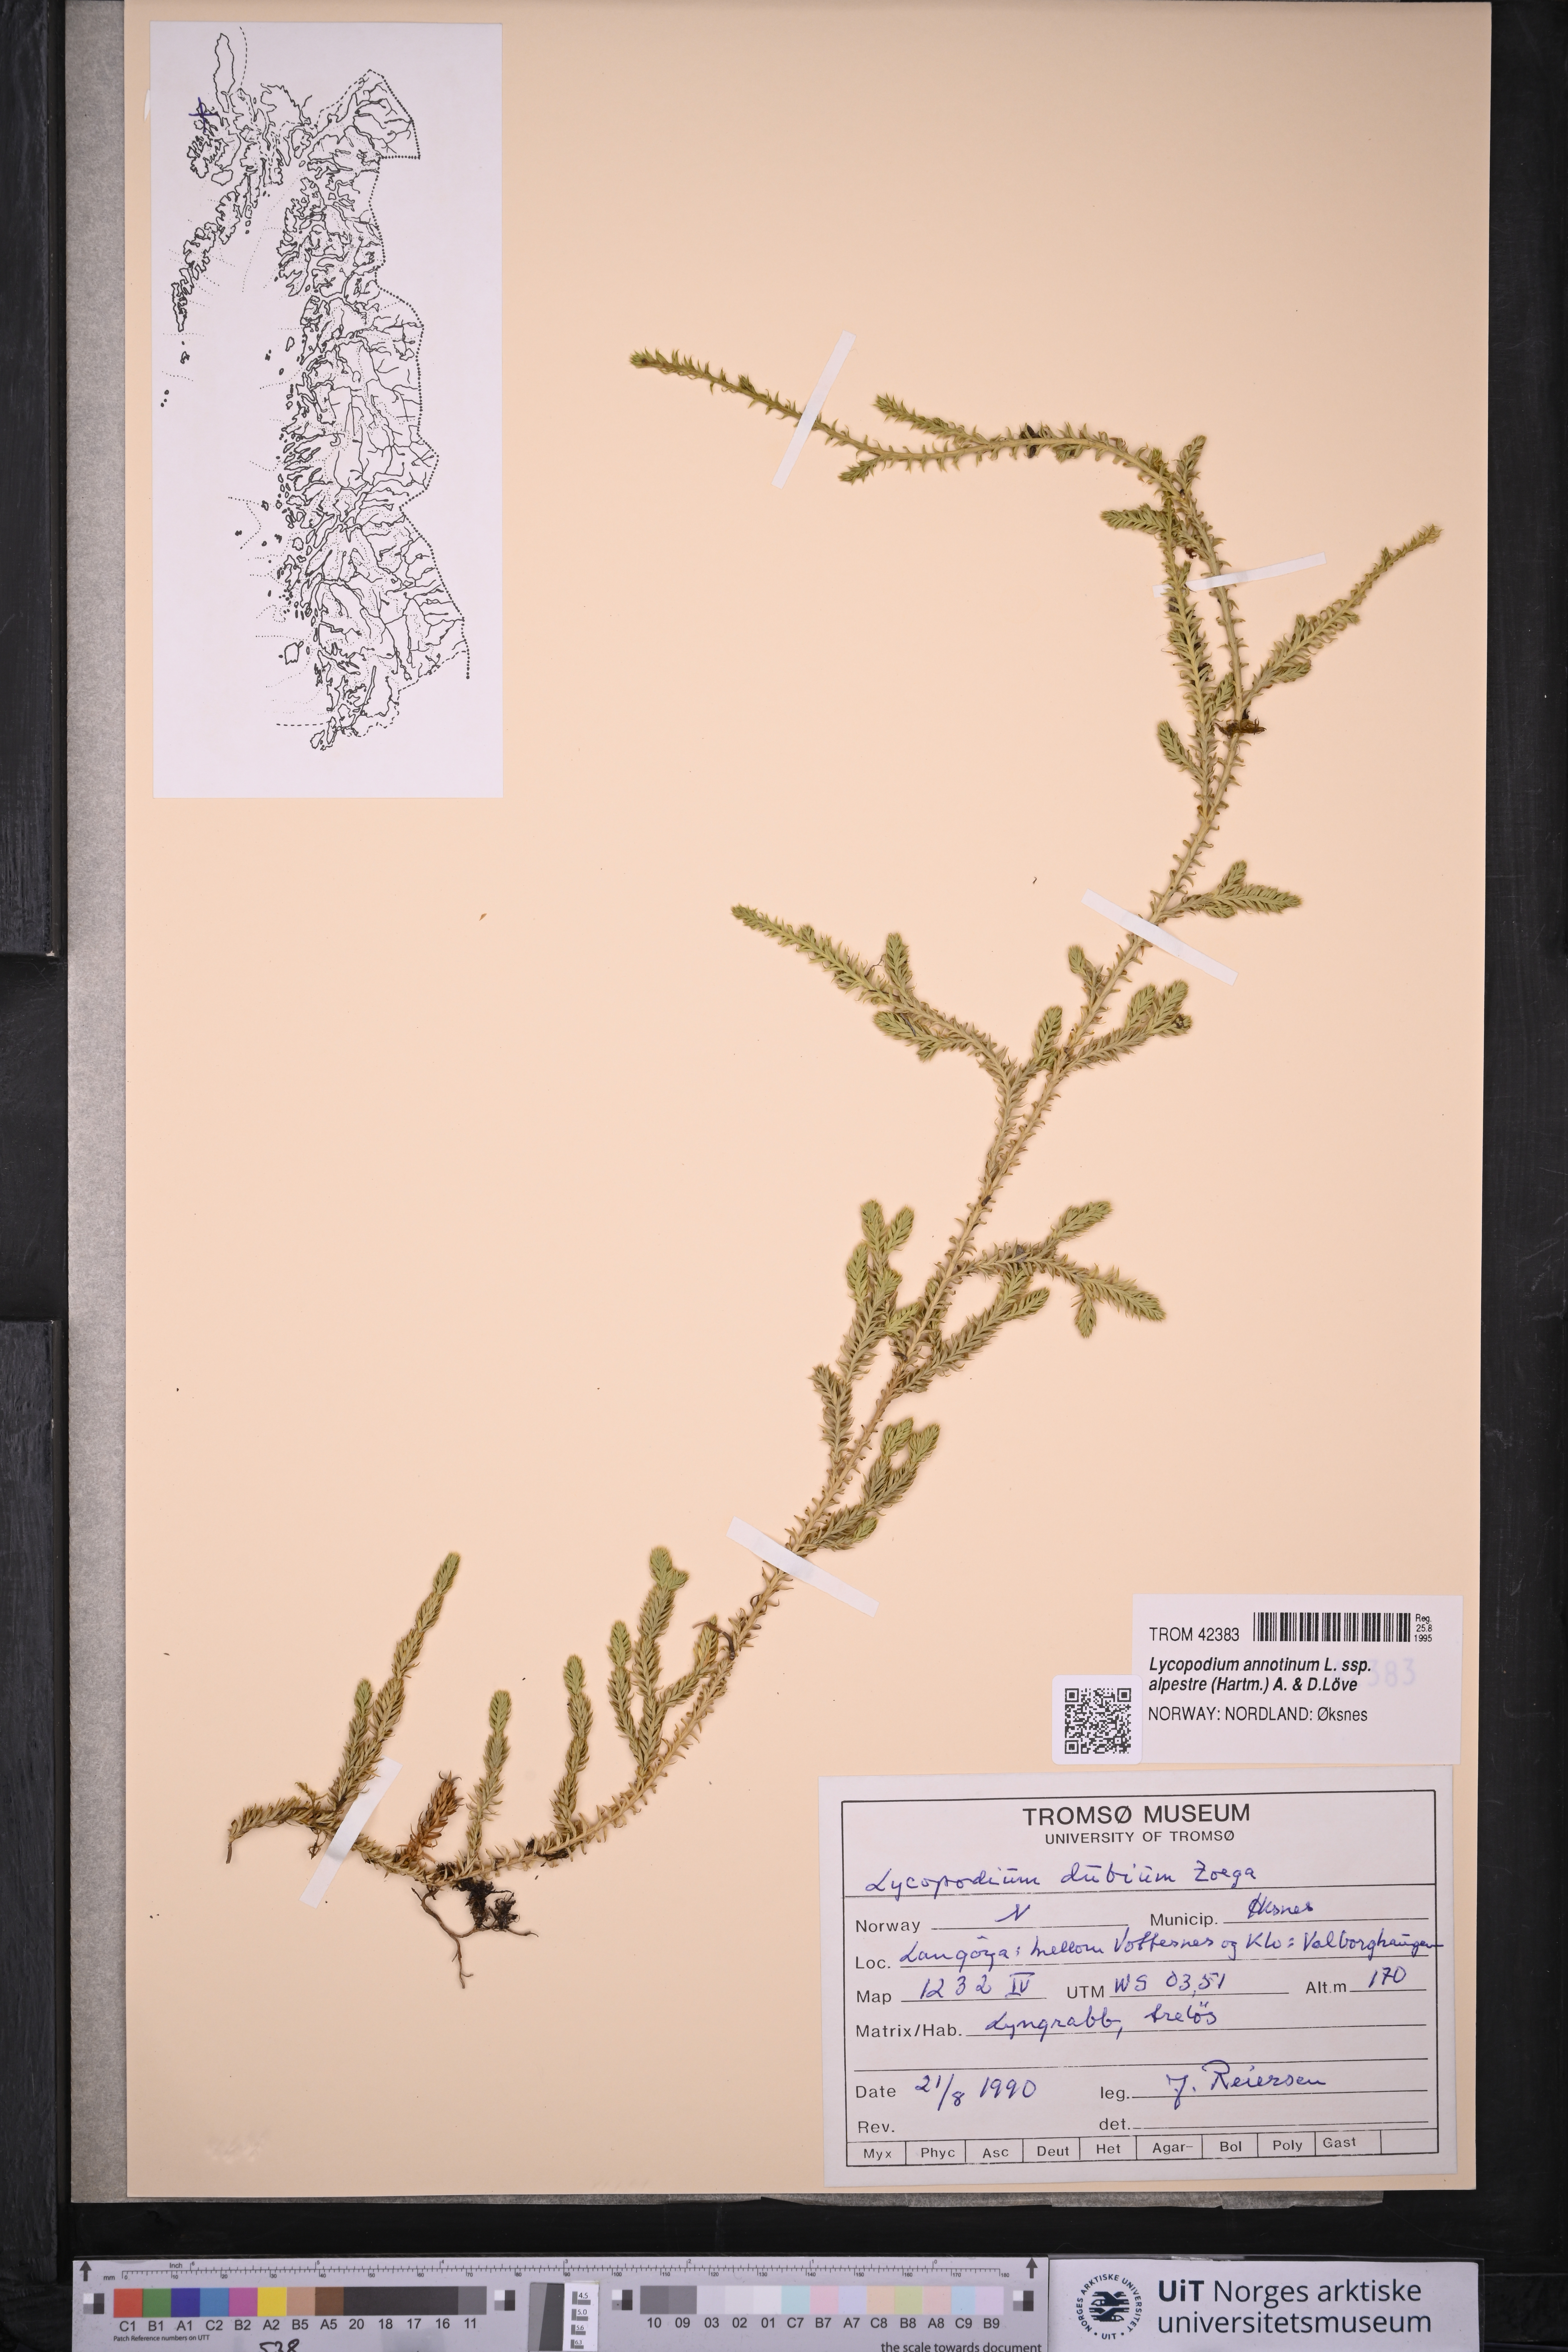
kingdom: Plantae
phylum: Tracheophyta
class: Lycopodiopsida
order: Lycopodiales
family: Lycopodiaceae
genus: Spinulum
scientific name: Spinulum annotinum
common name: Interrupted club-moss
